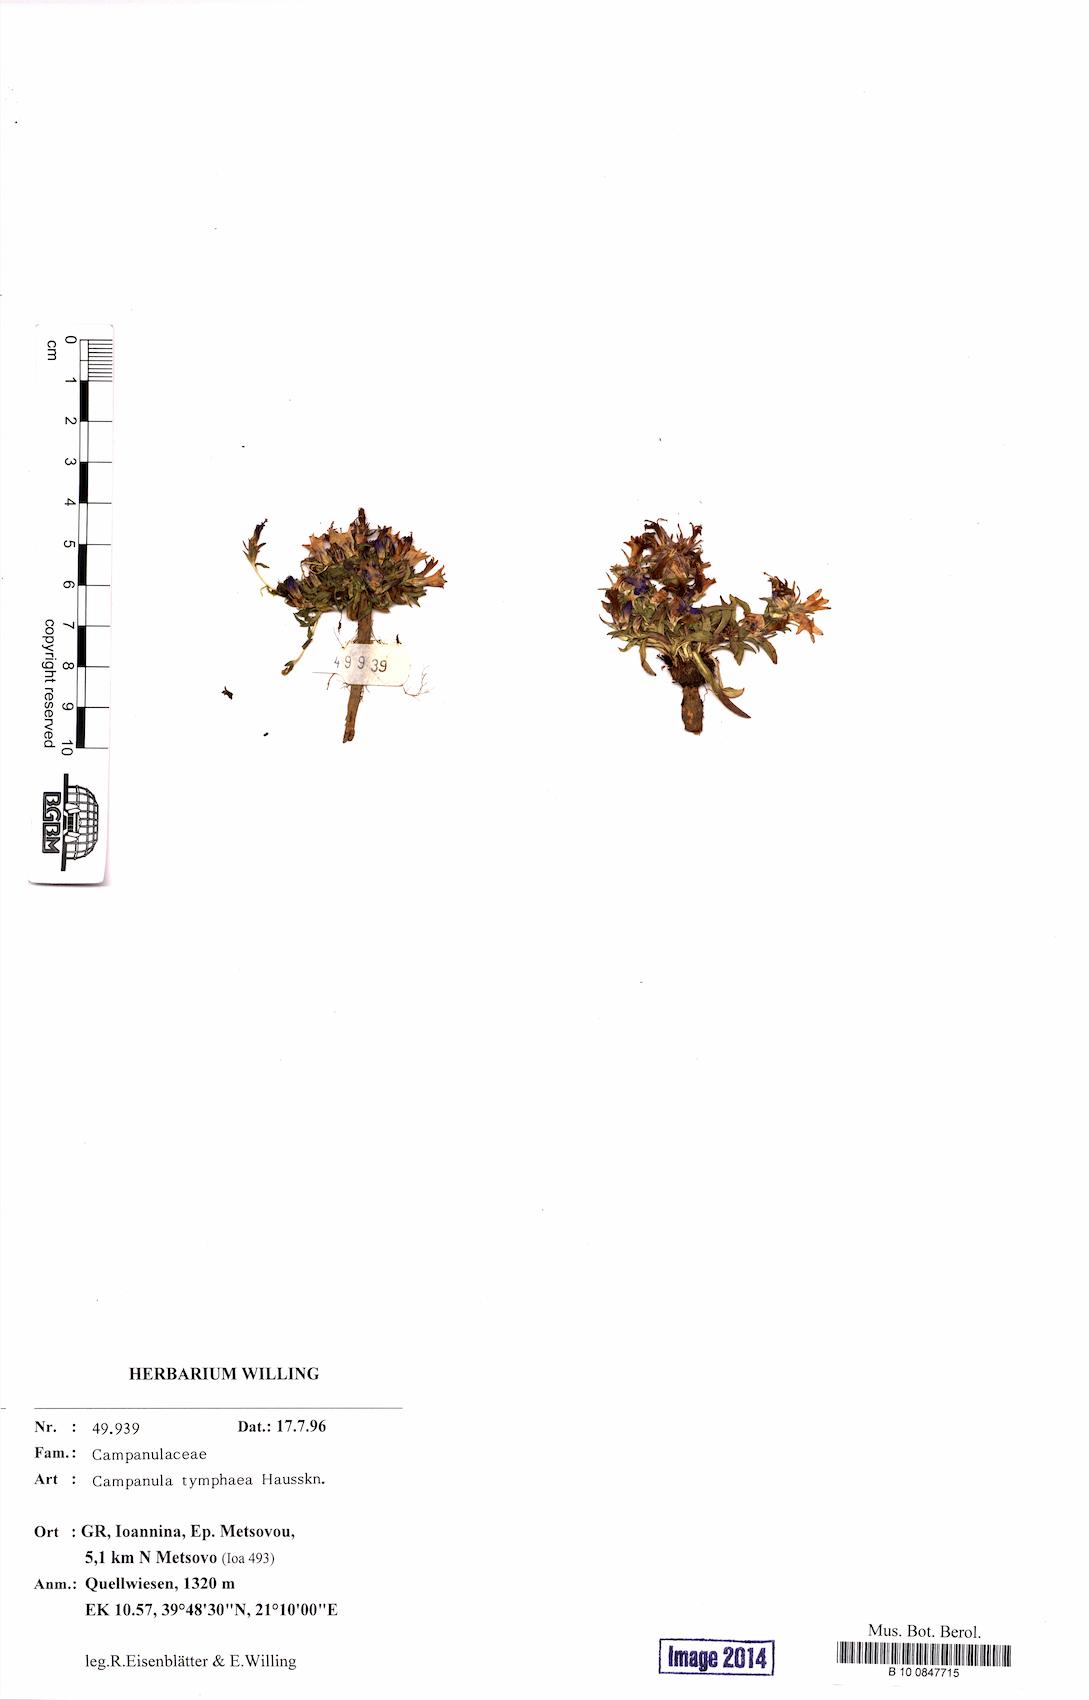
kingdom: Plantae
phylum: Tracheophyta
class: Magnoliopsida
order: Asterales
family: Campanulaceae
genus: Campanula
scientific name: Campanula tymphaea
